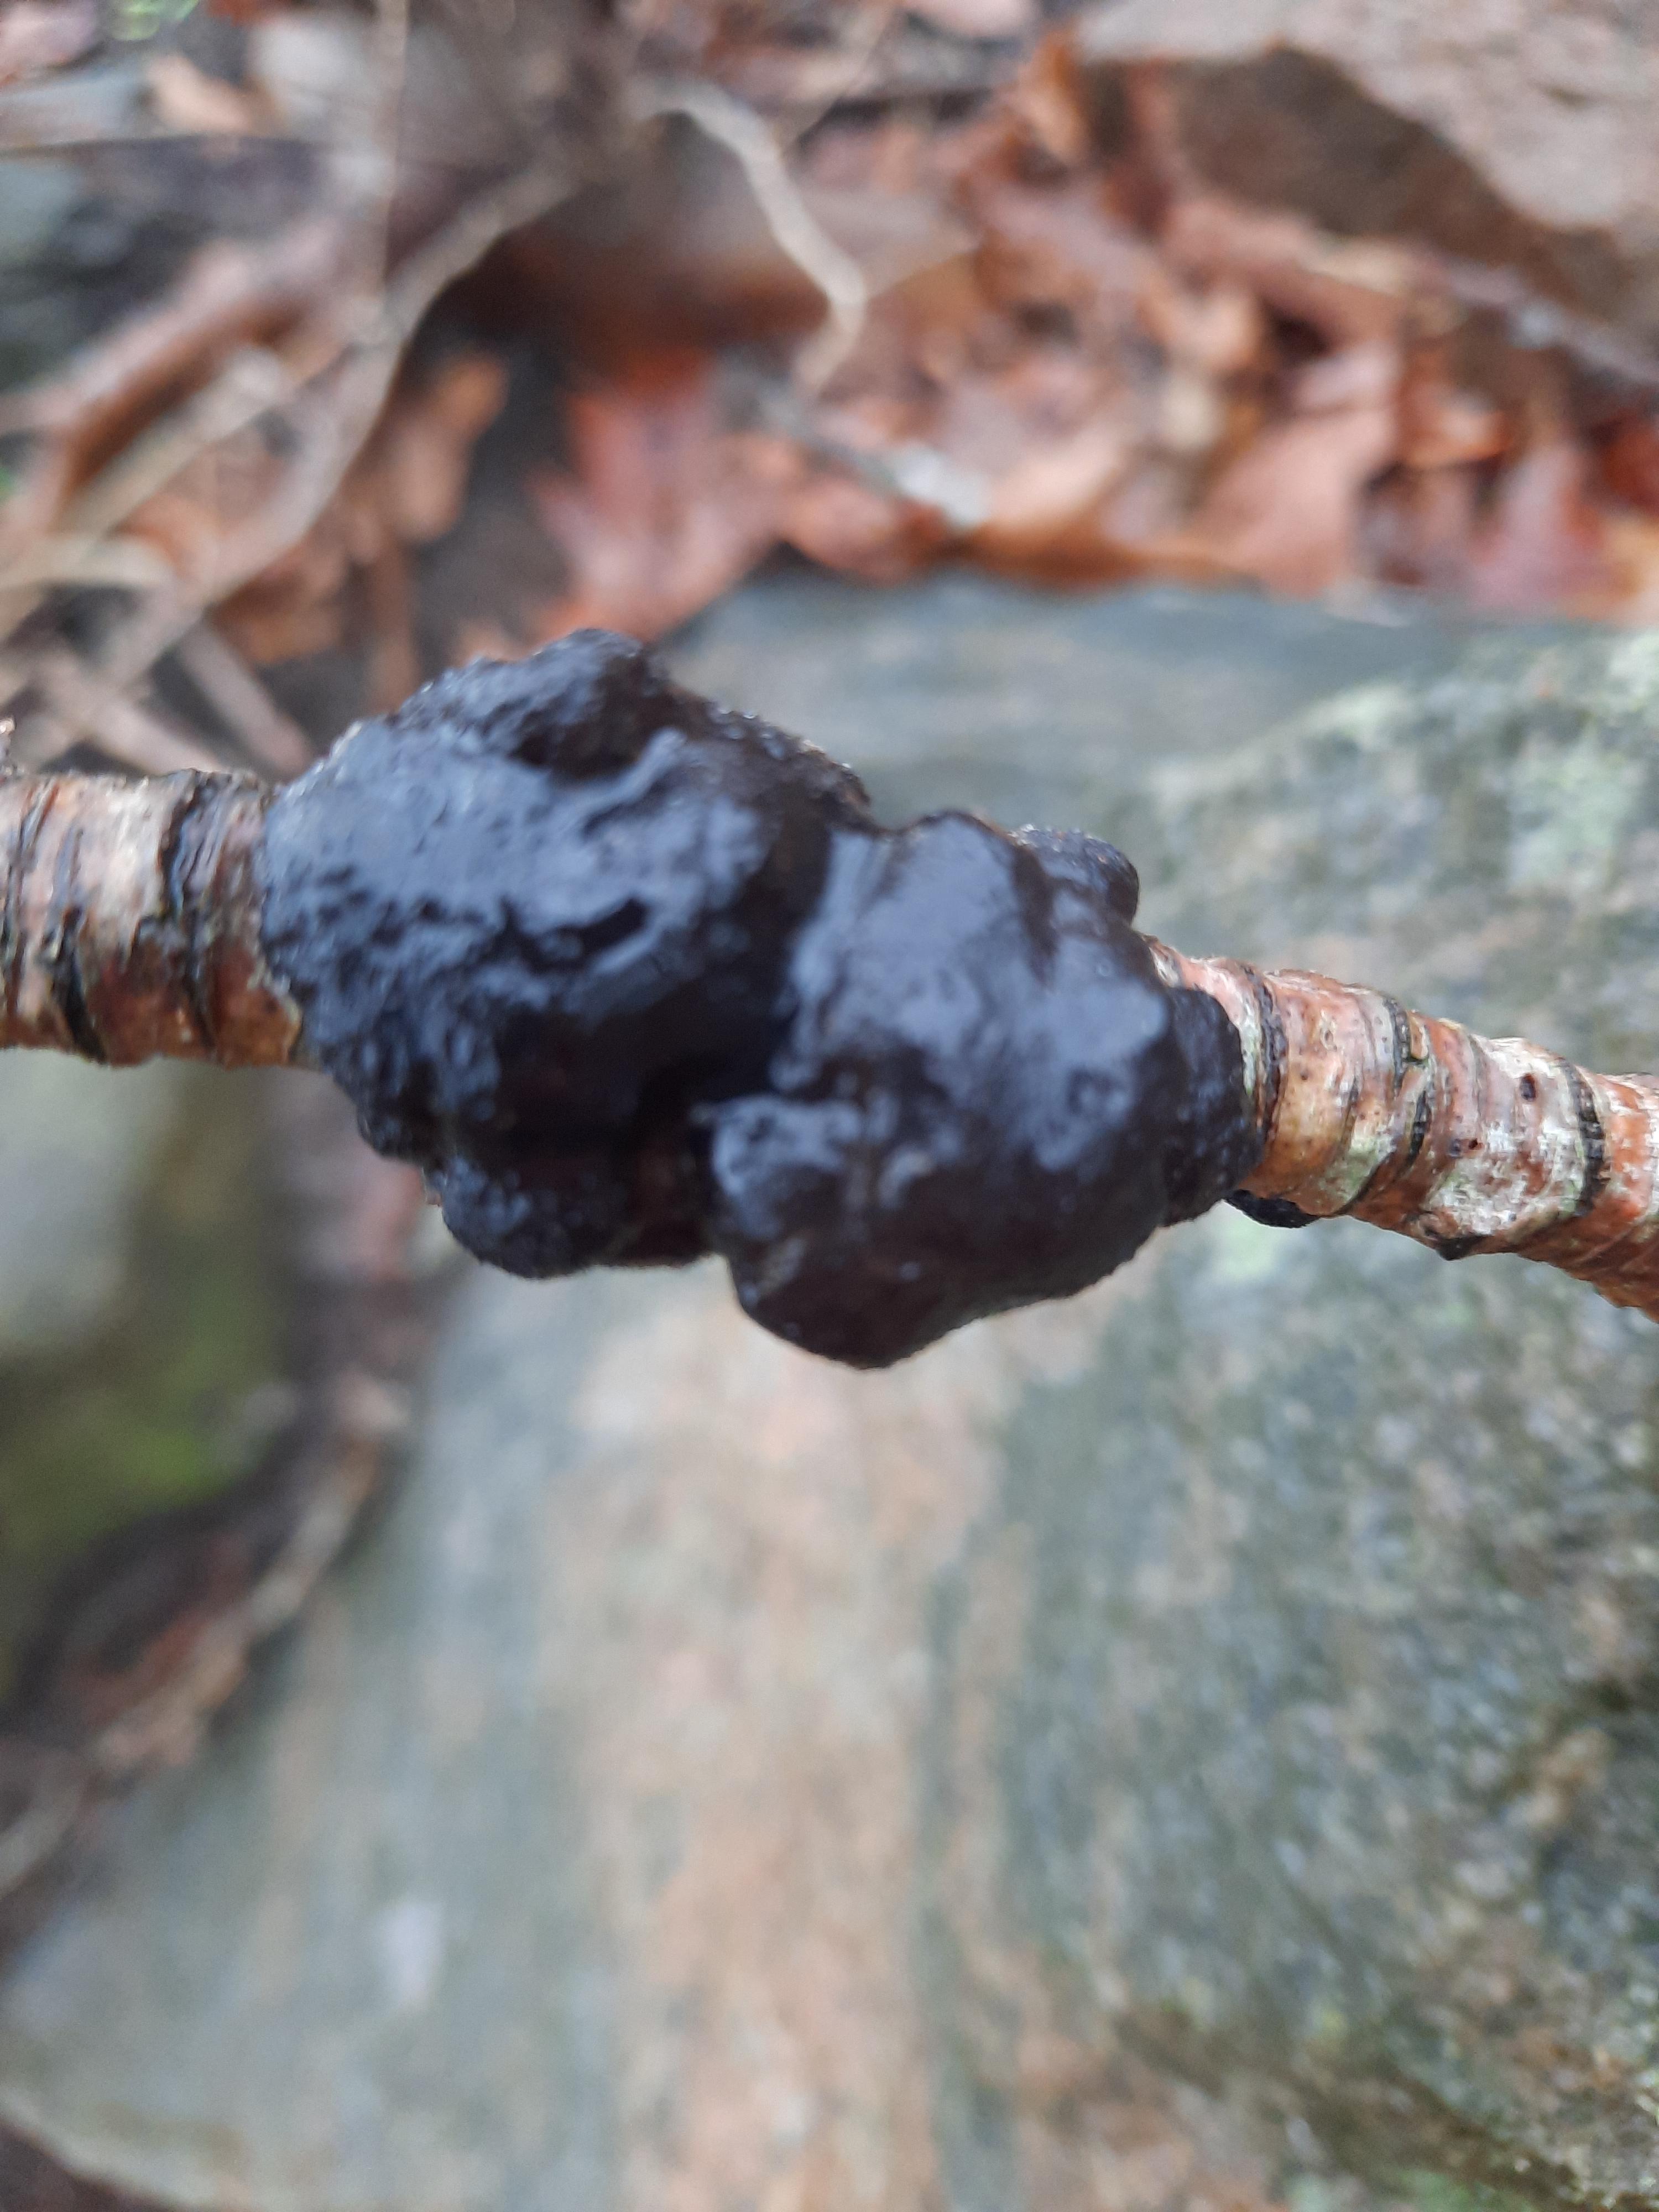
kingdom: Fungi
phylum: Basidiomycota
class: Agaricomycetes
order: Auriculariales
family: Auriculariaceae
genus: Exidia
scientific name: Exidia glandulosa
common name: ege-bævretop
